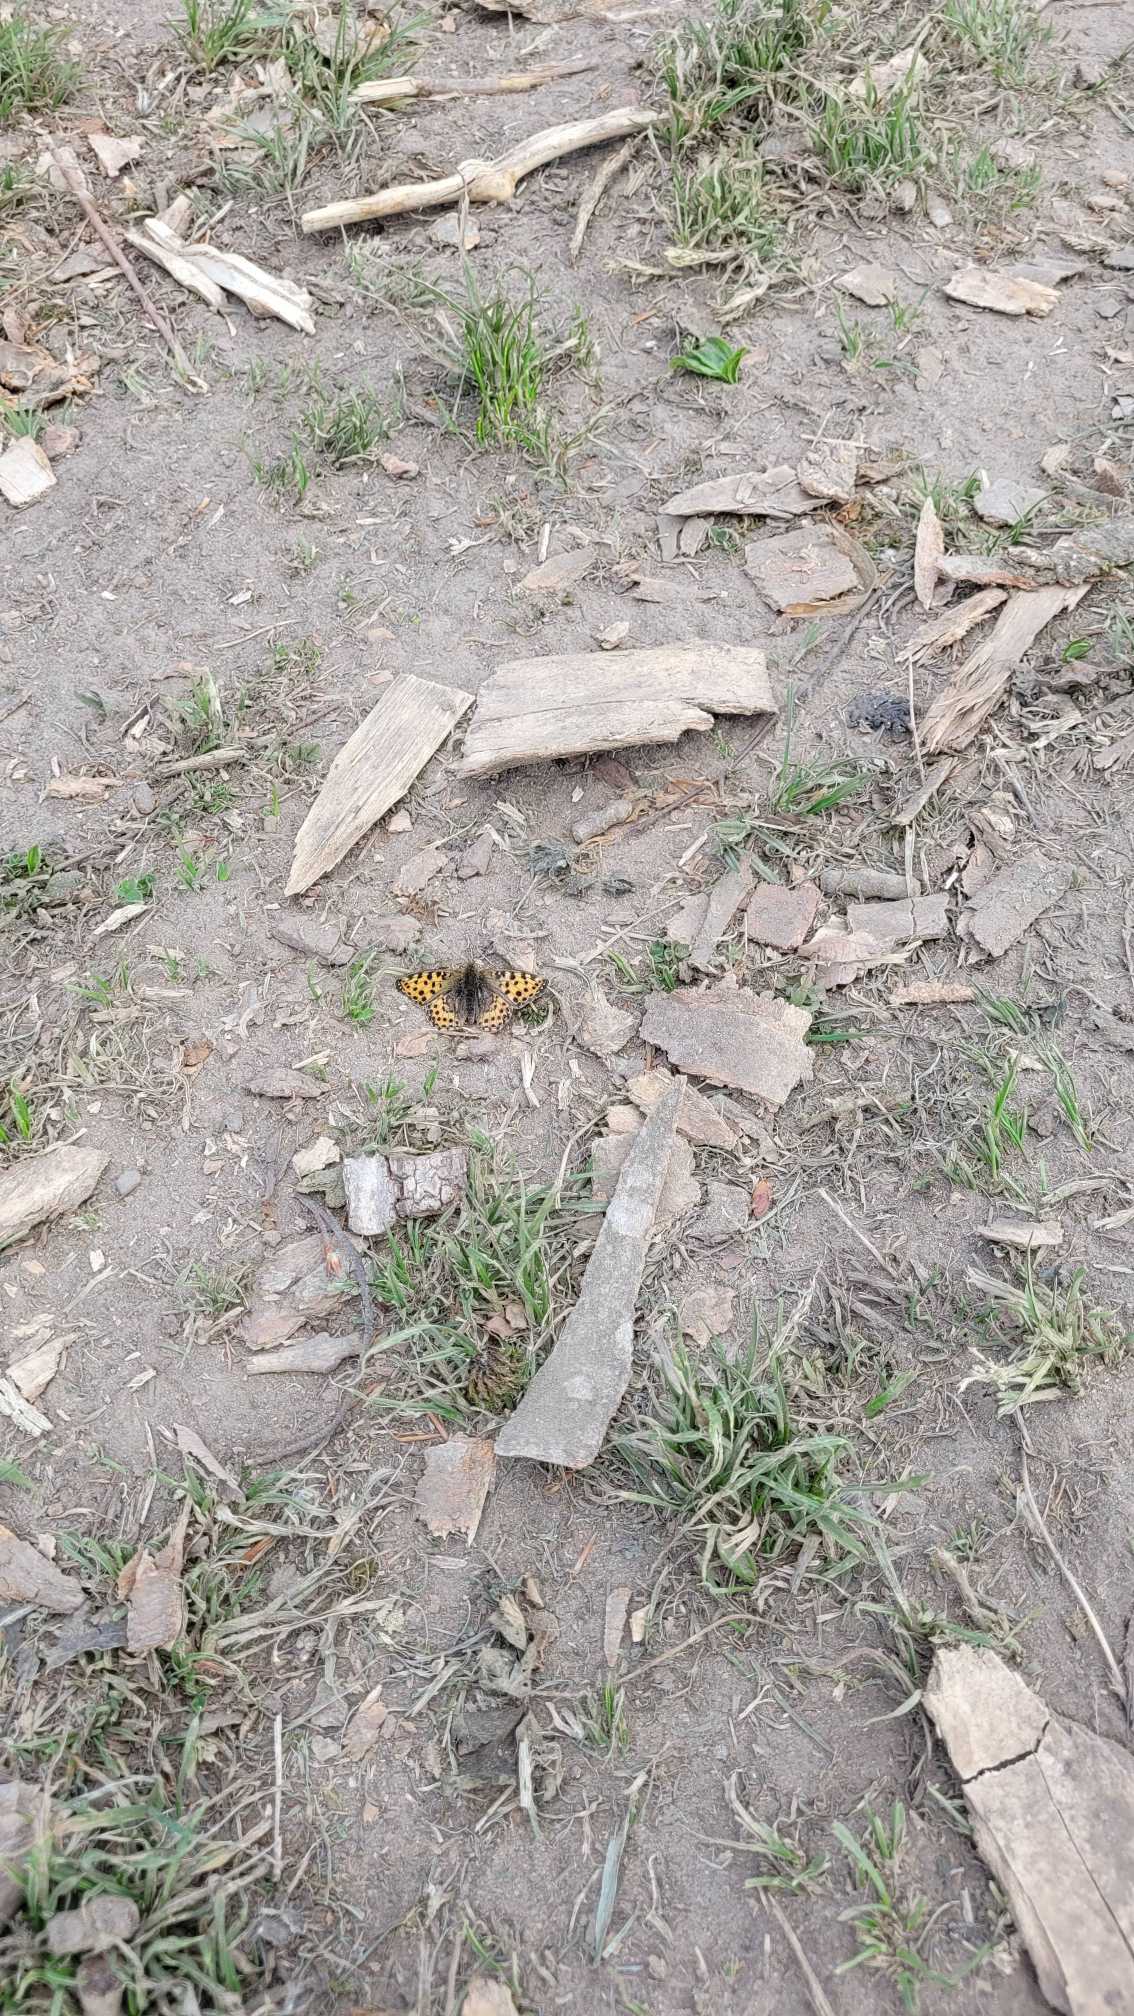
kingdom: Animalia
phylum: Arthropoda
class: Insecta
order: Lepidoptera
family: Nymphalidae
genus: Issoria
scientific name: Issoria lathonia
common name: Storplettet perlemorsommerfugl
